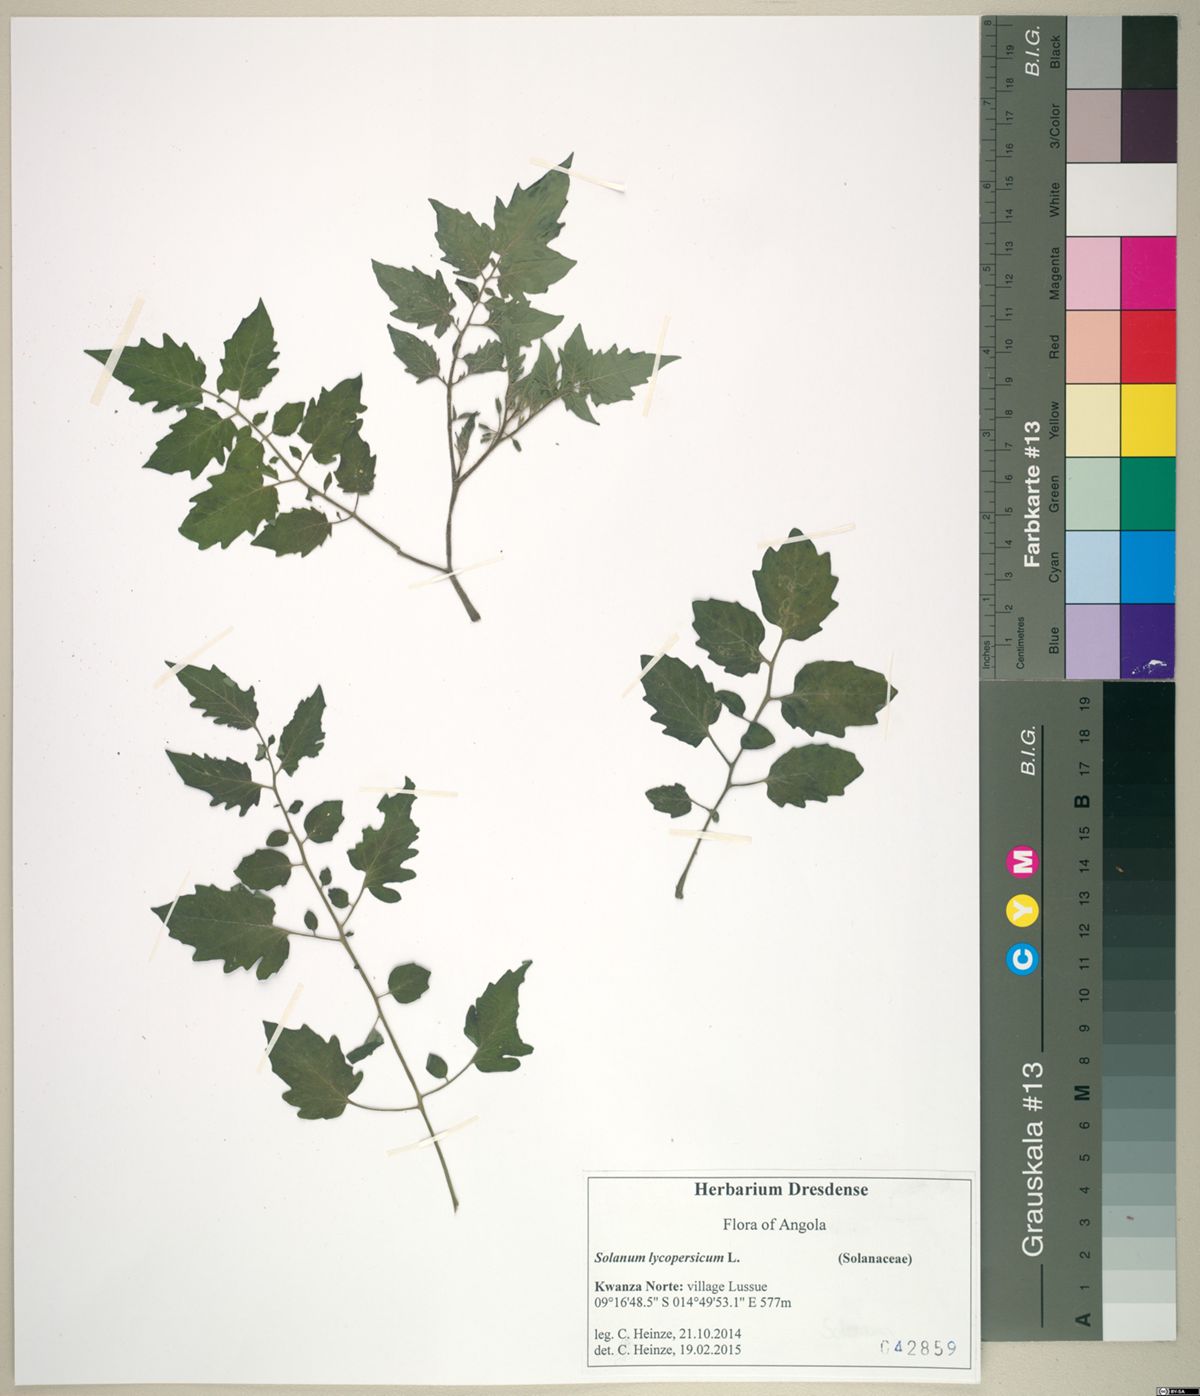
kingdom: Plantae
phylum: Tracheophyta
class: Magnoliopsida
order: Solanales
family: Solanaceae
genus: Solanum
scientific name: Solanum lycopersicum
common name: Garden tomato
